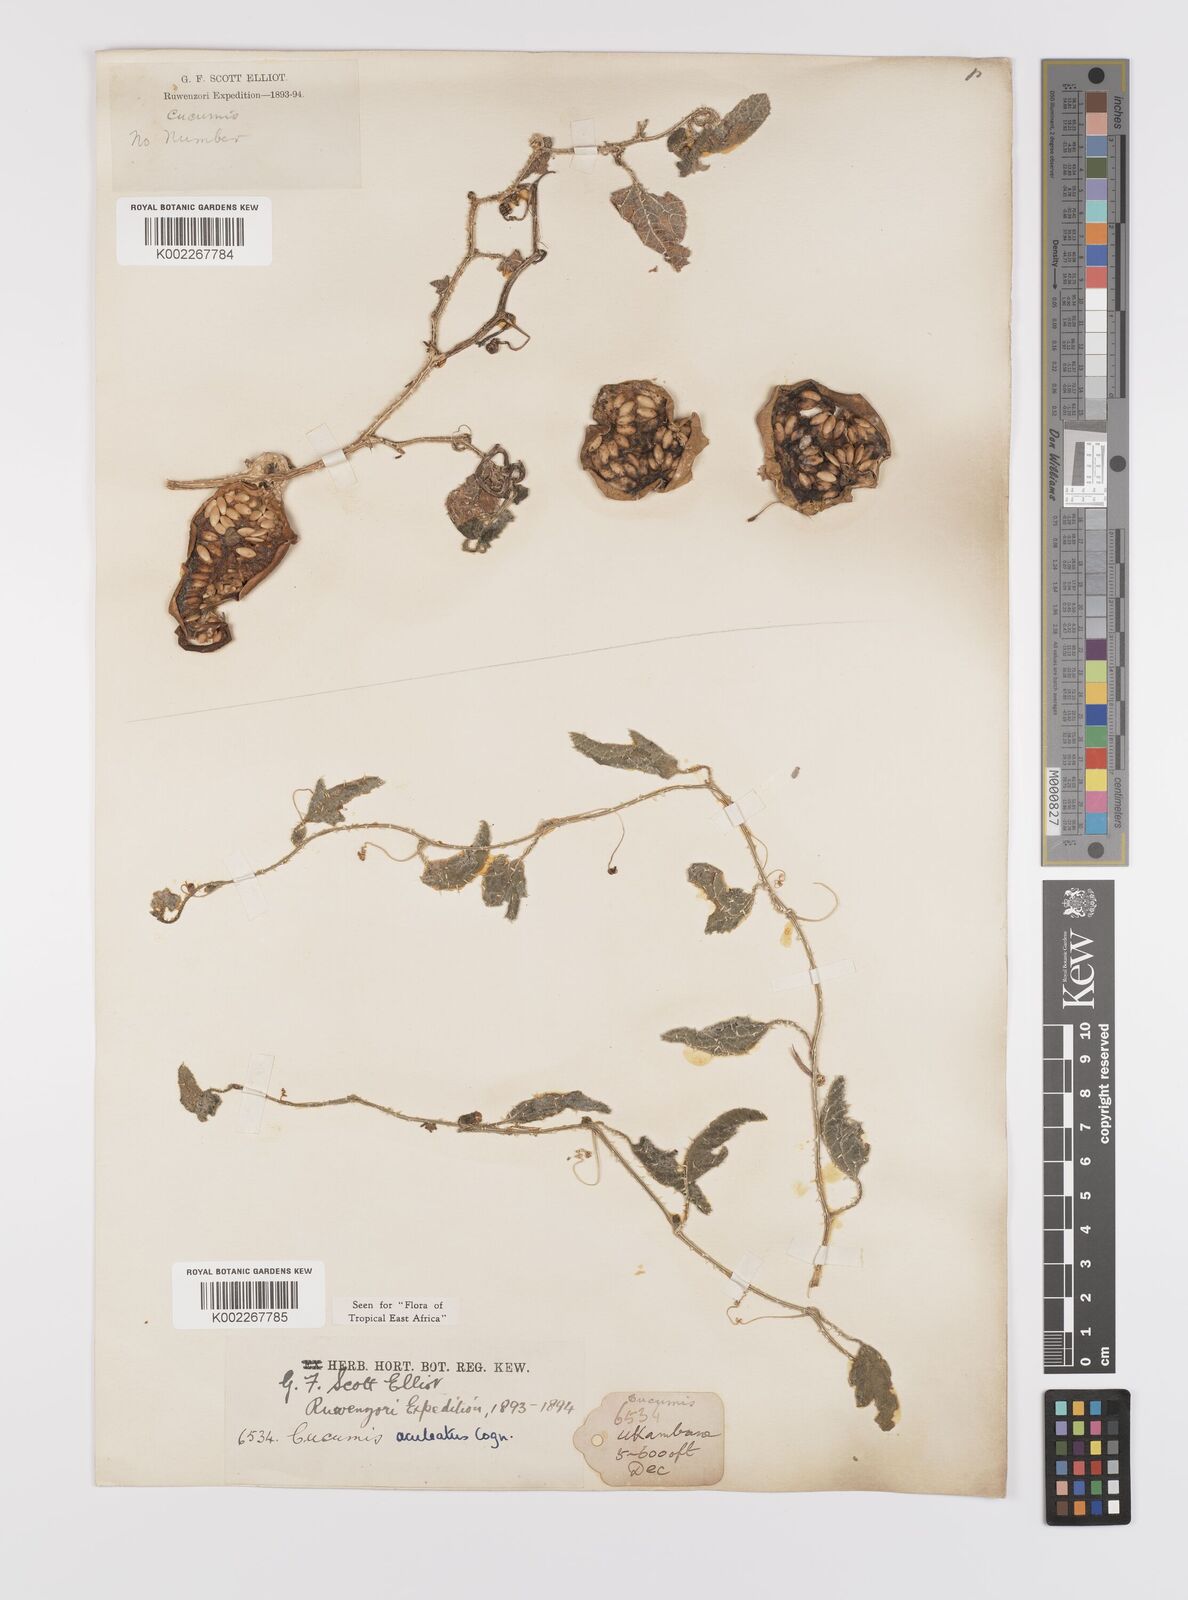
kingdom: Plantae
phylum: Tracheophyta
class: Magnoliopsida
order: Cucurbitales
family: Cucurbitaceae
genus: Cucumis
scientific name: Cucumis aculeatus
